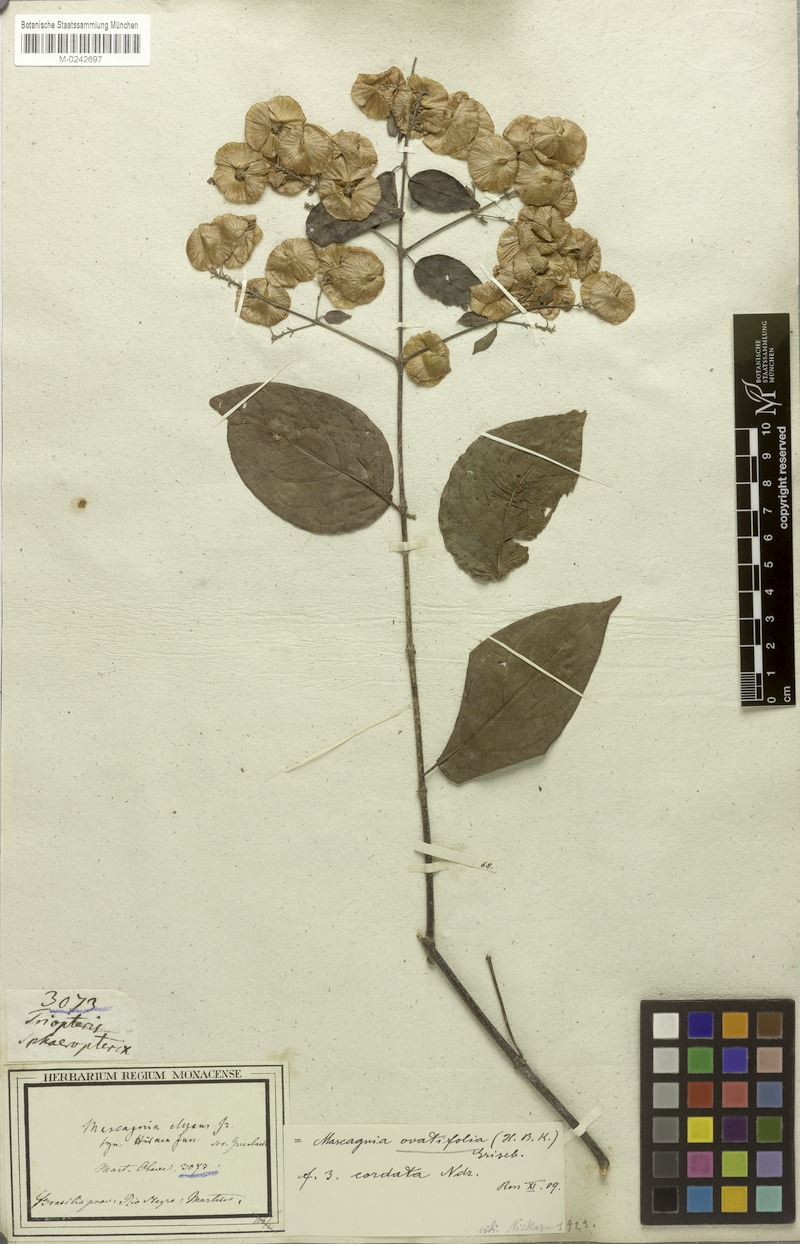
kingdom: Plantae
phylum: Tracheophyta
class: Magnoliopsida
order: Malpighiales
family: Malpighiaceae
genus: Mascagnia
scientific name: Mascagnia divaricata
